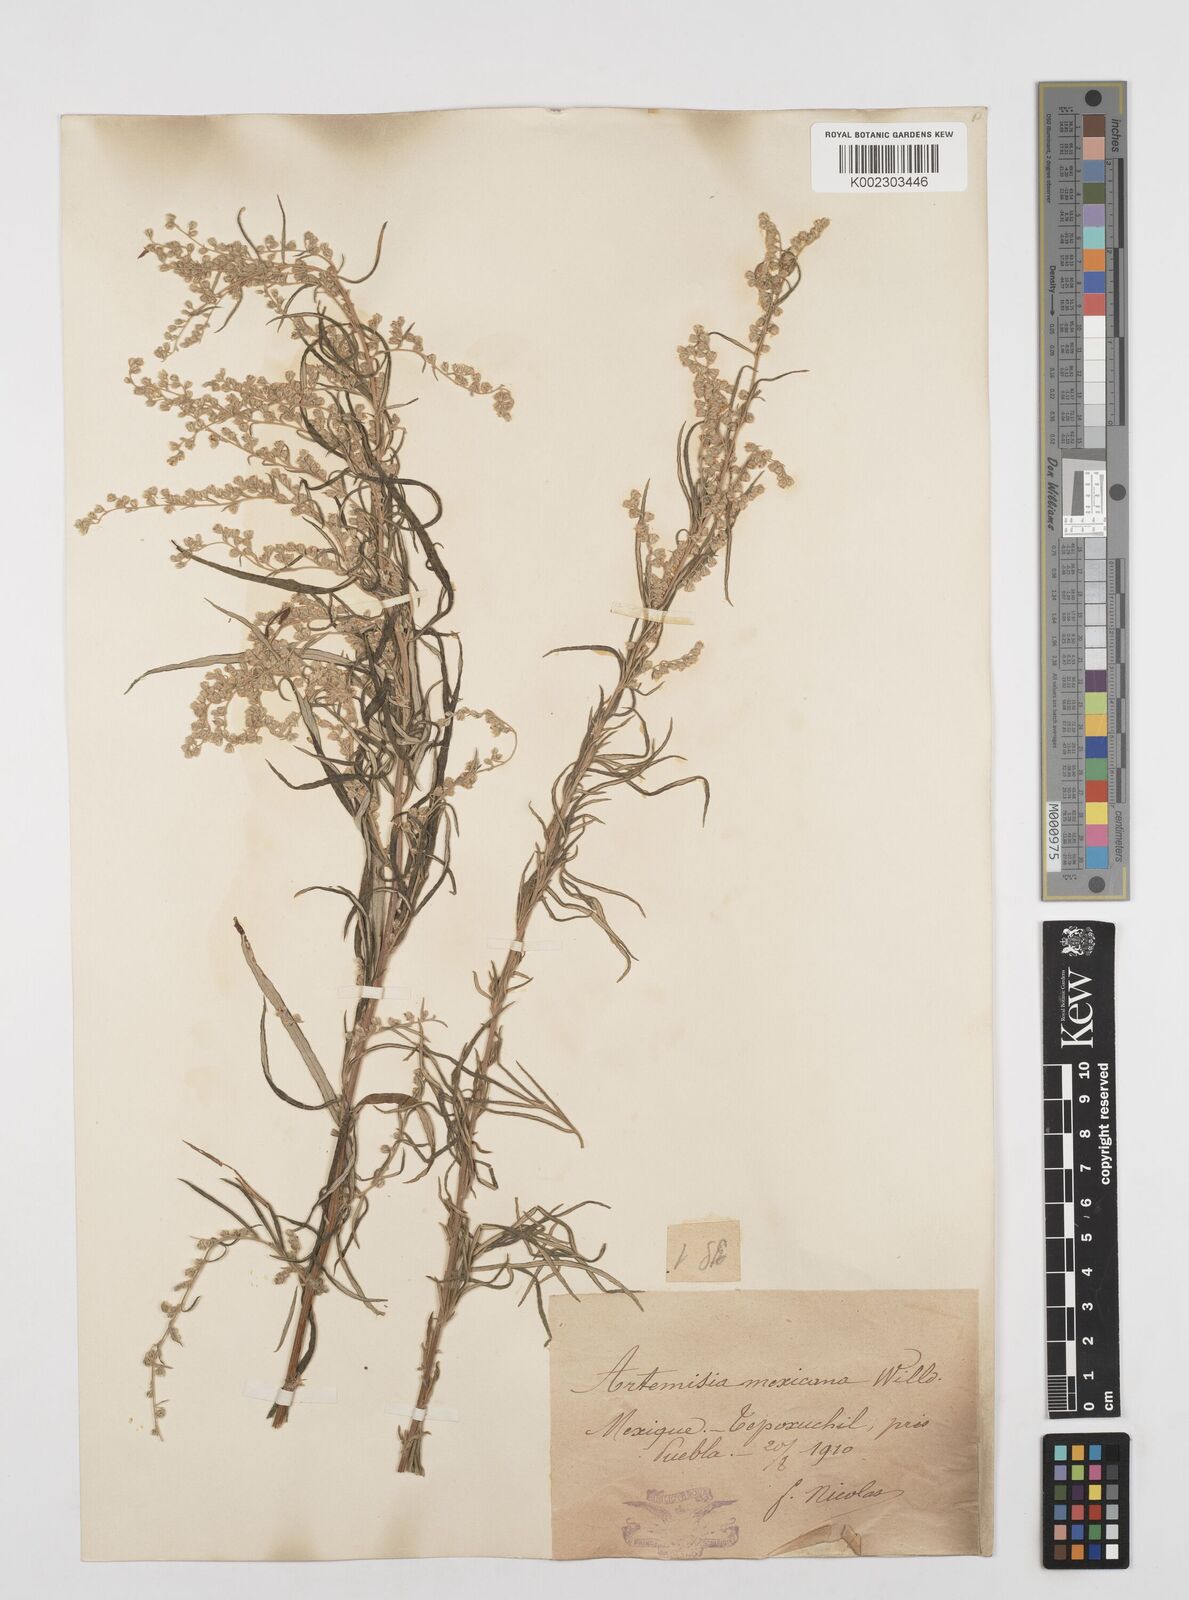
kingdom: Plantae
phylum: Tracheophyta
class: Magnoliopsida
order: Asterales
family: Asteraceae
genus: Artemisia
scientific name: Artemisia ludoviciana
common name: Western mugwort
